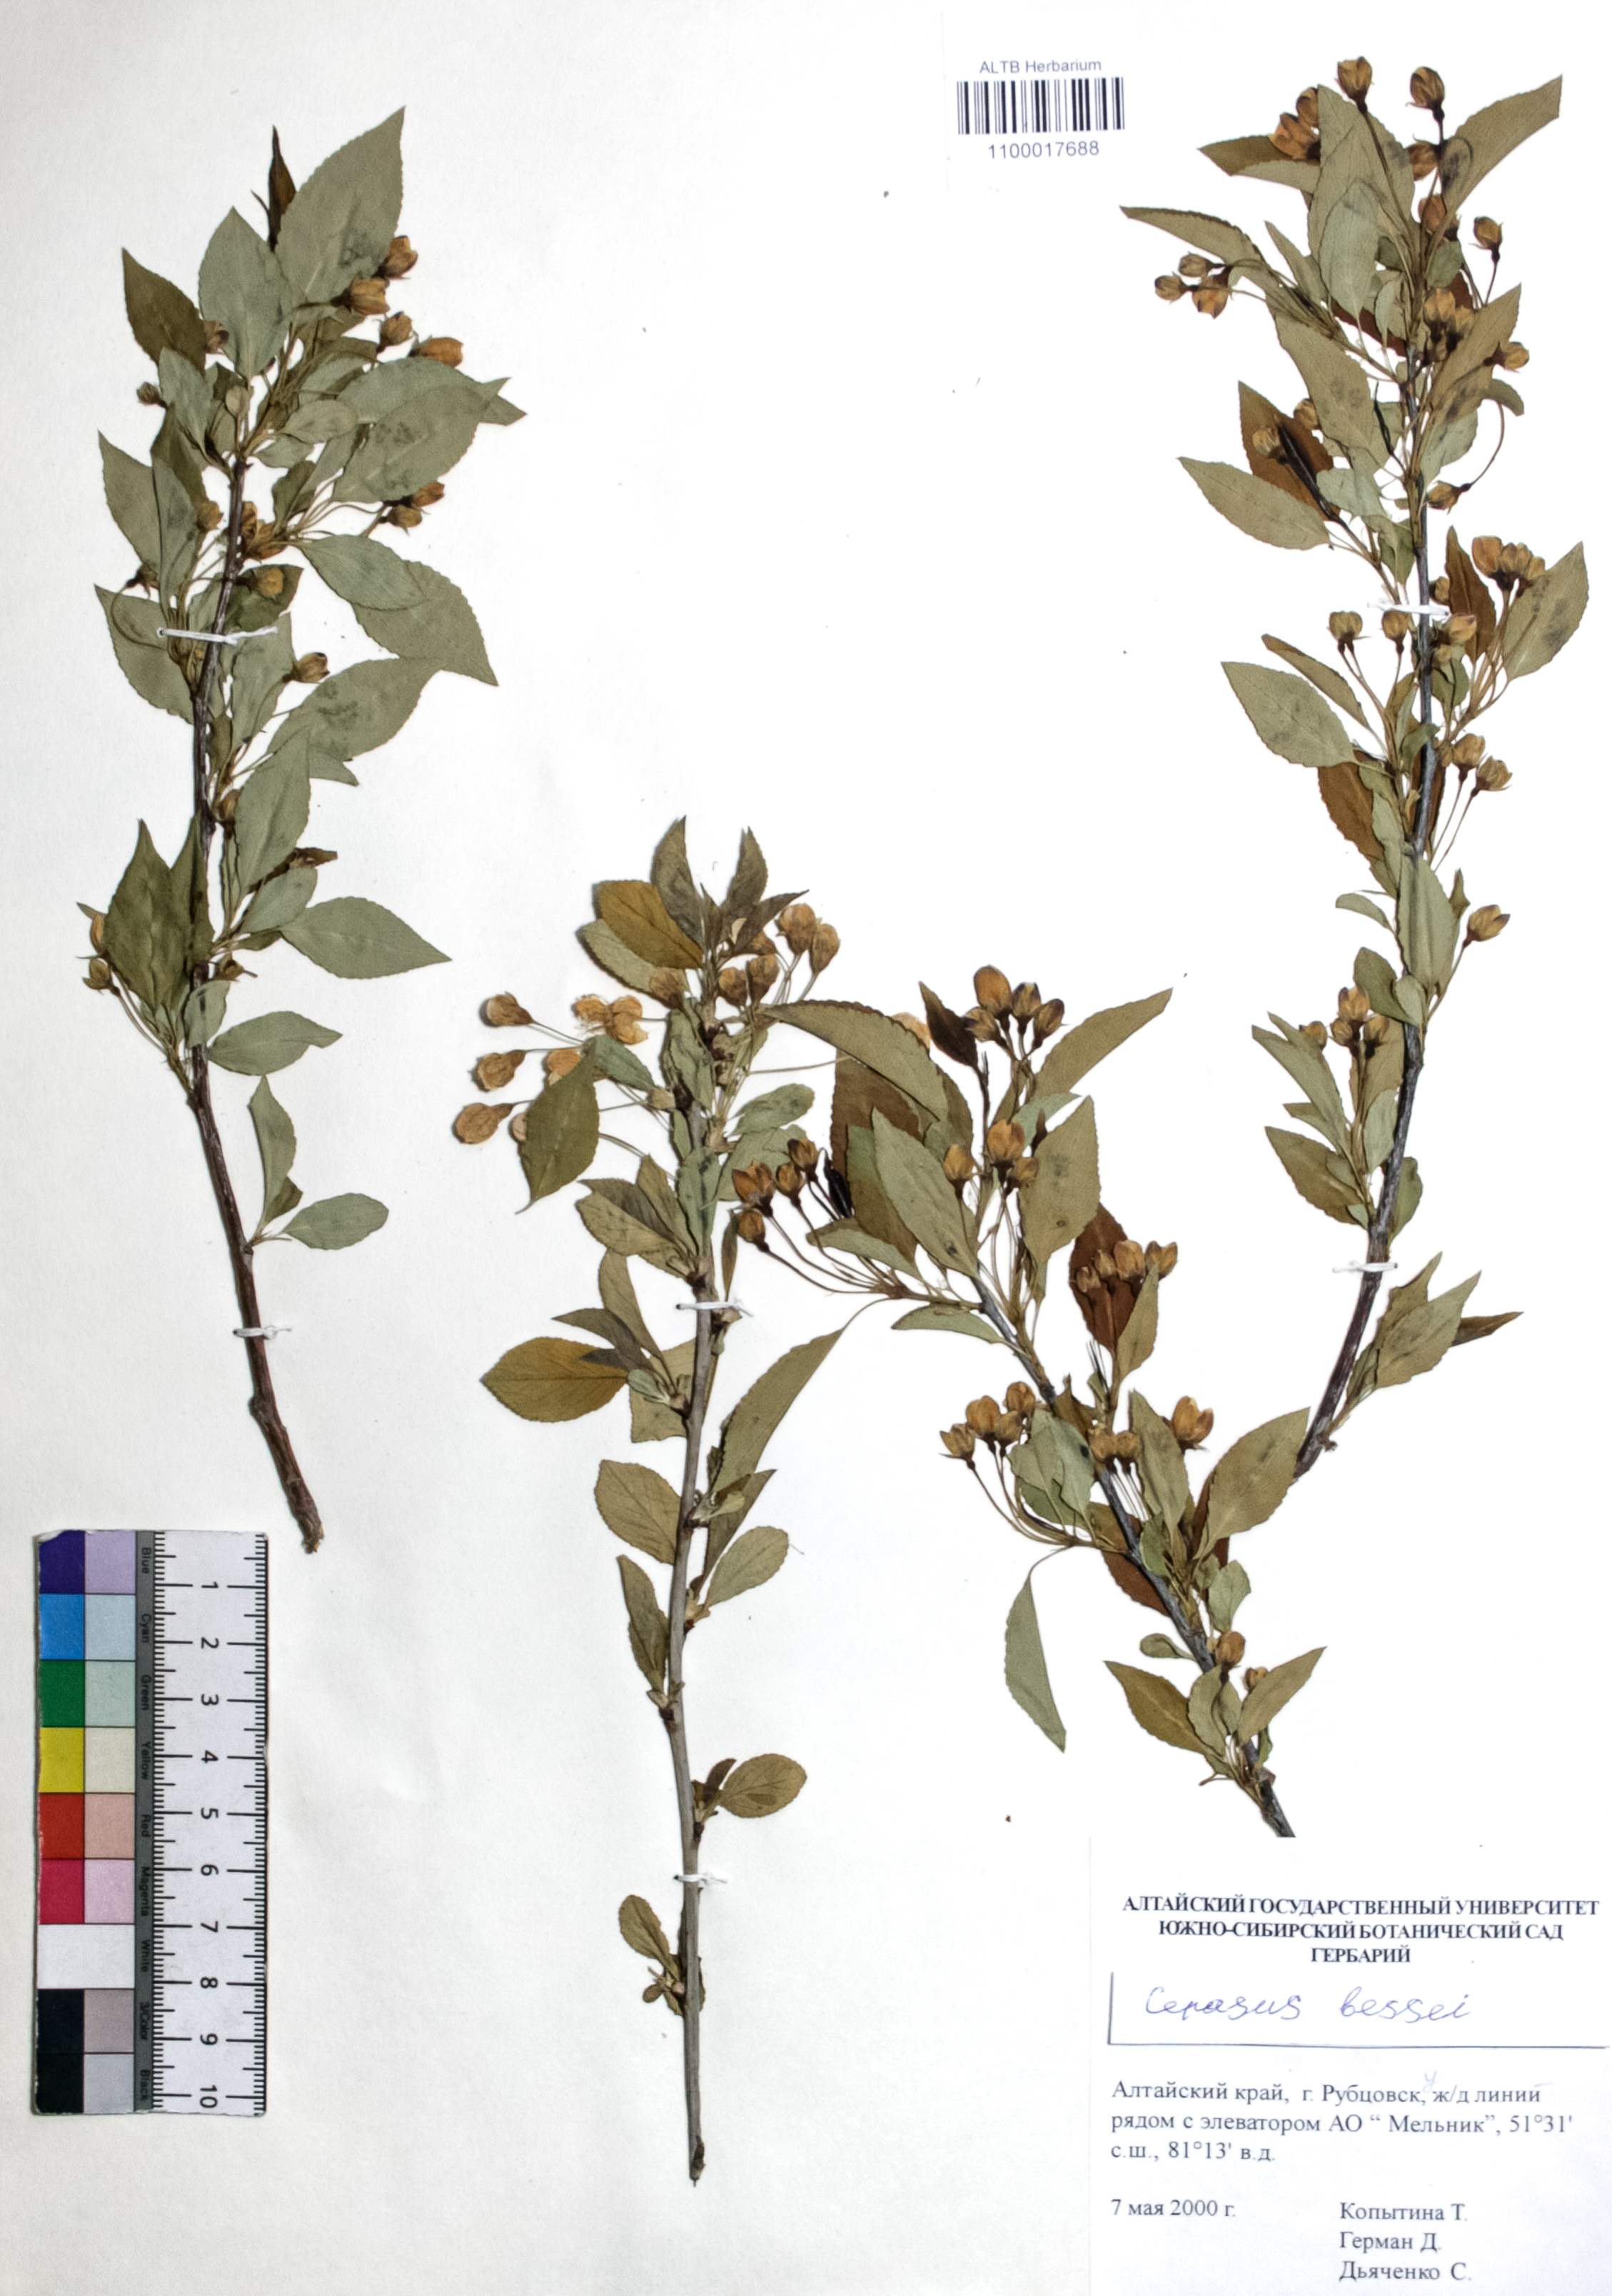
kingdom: Plantae
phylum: Tracheophyta
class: Magnoliopsida
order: Rosales
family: Rosaceae
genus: Prunus
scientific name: Prunus pumila
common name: Dwarf cherry
